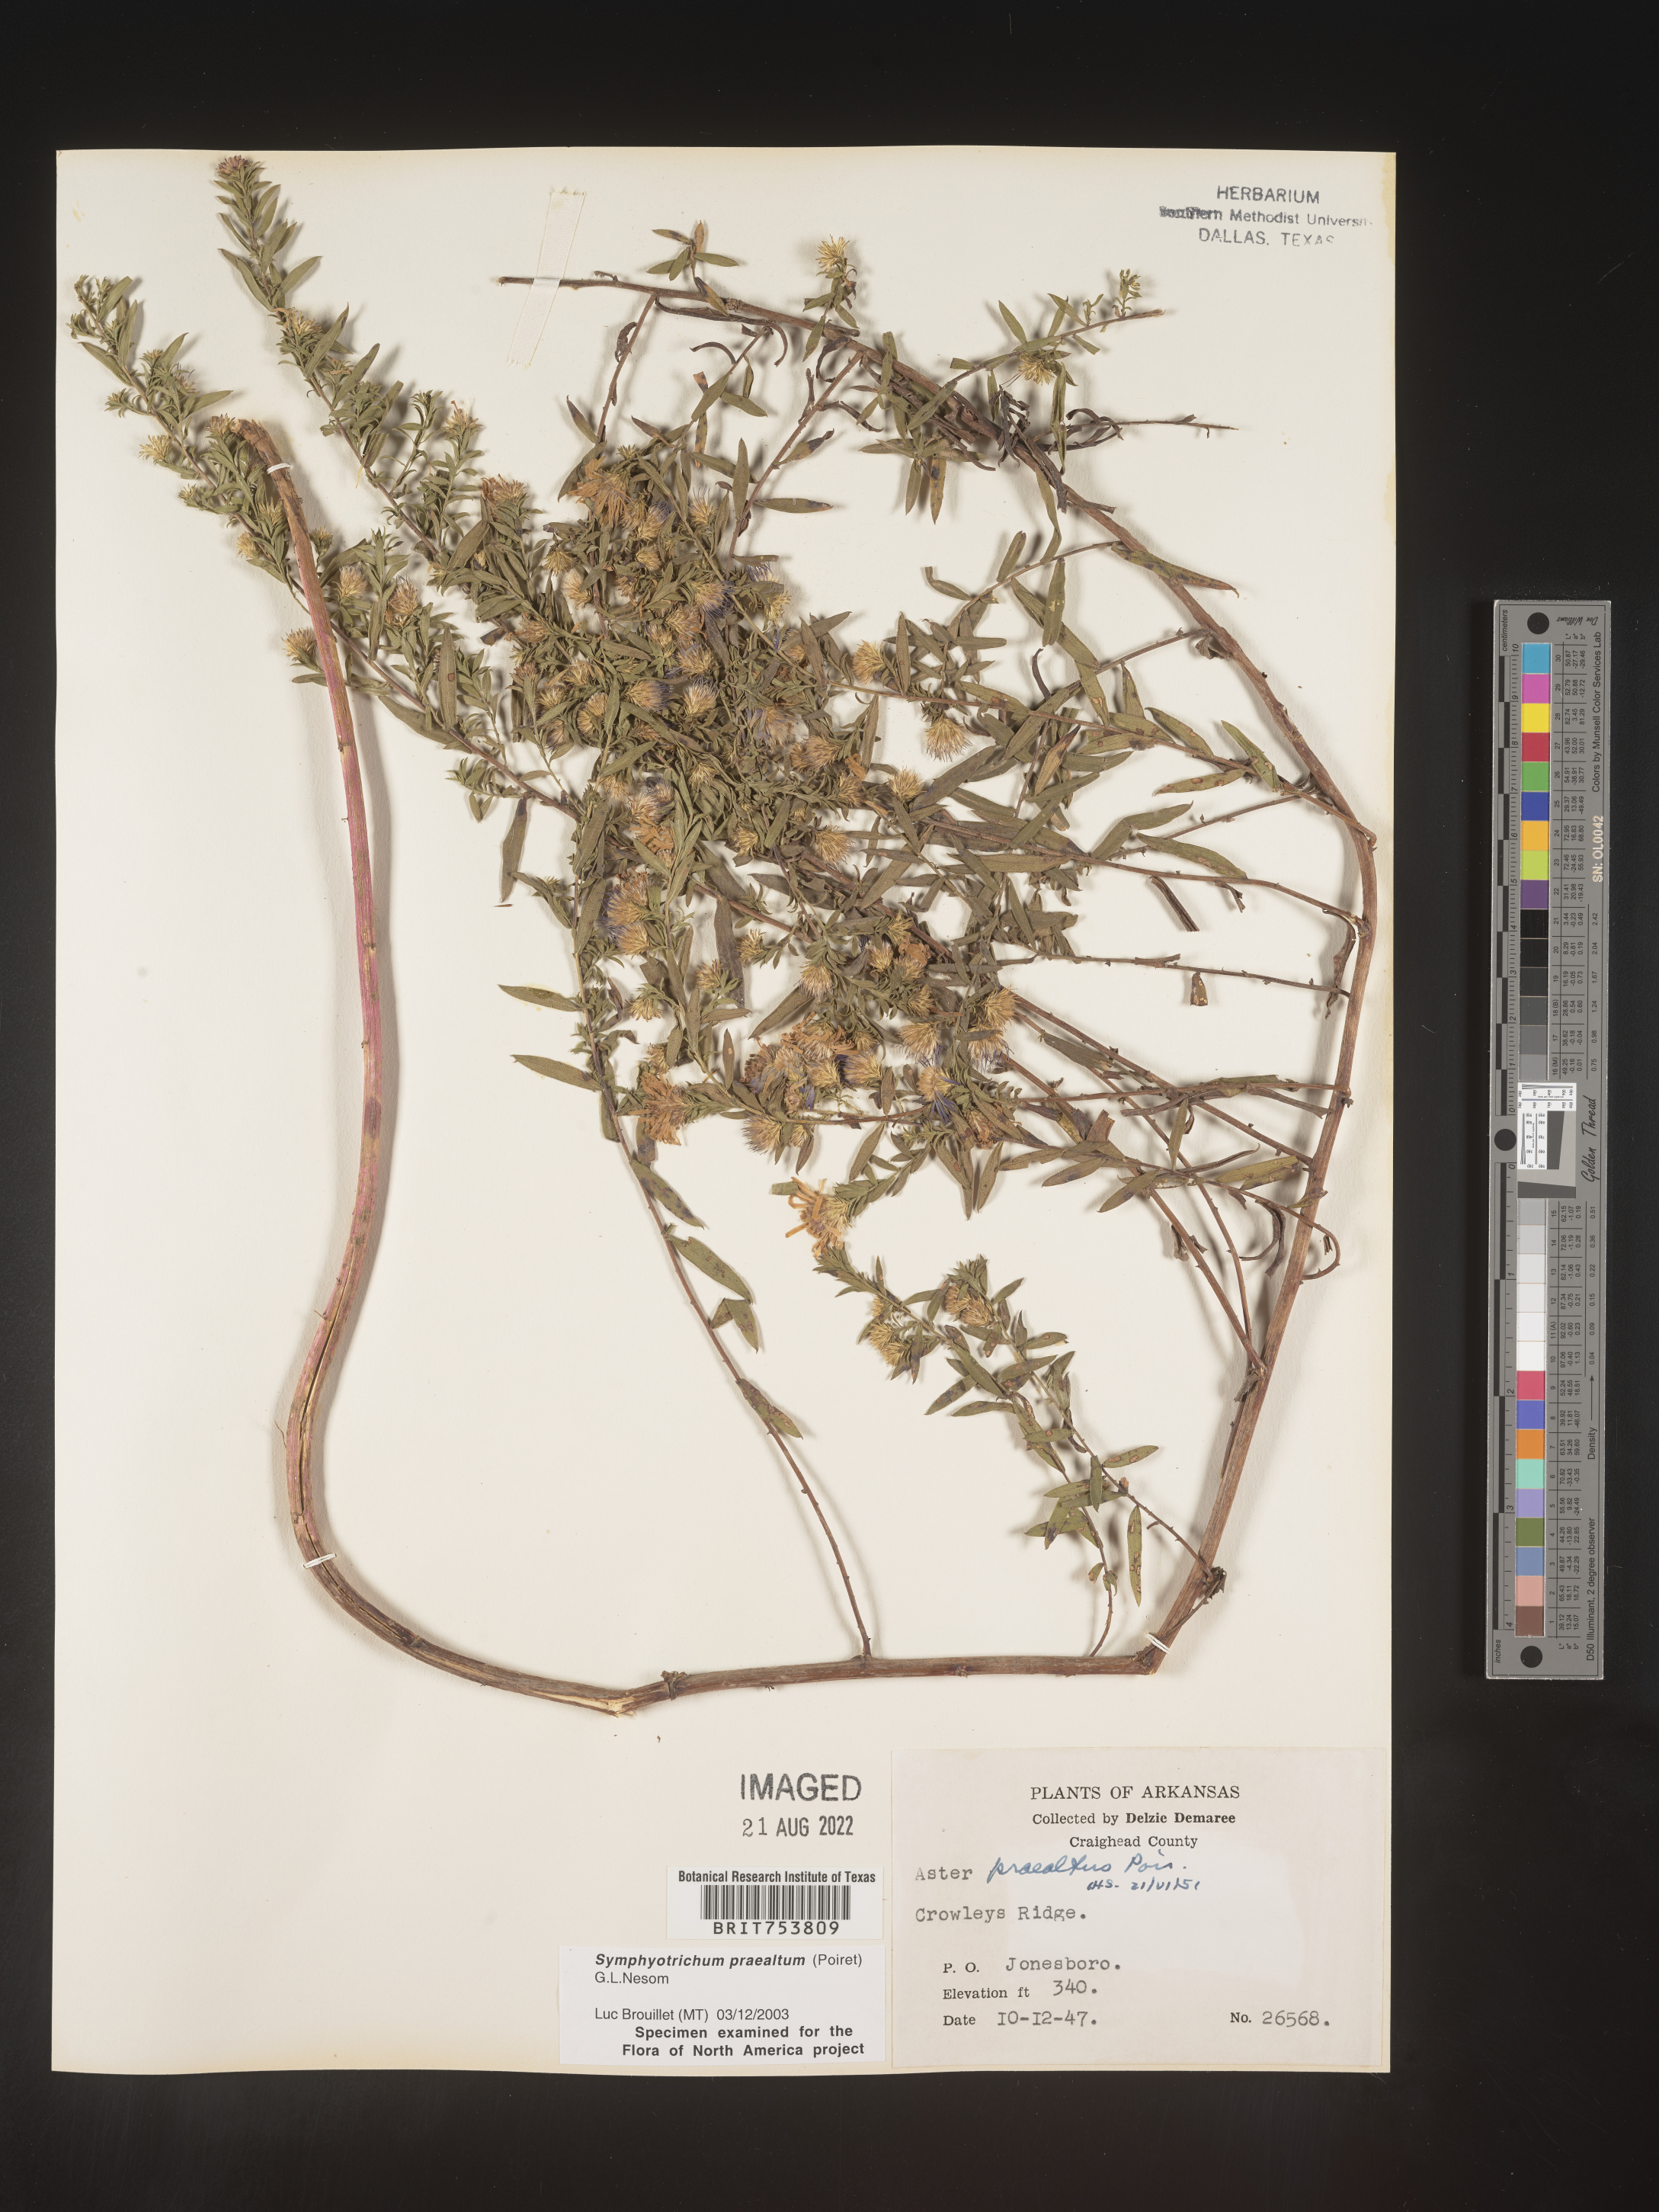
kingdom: Plantae
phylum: Tracheophyta
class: Magnoliopsida
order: Asterales
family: Asteraceae
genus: Symphyotrichum
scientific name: Symphyotrichum praealtum
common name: Willow aster
